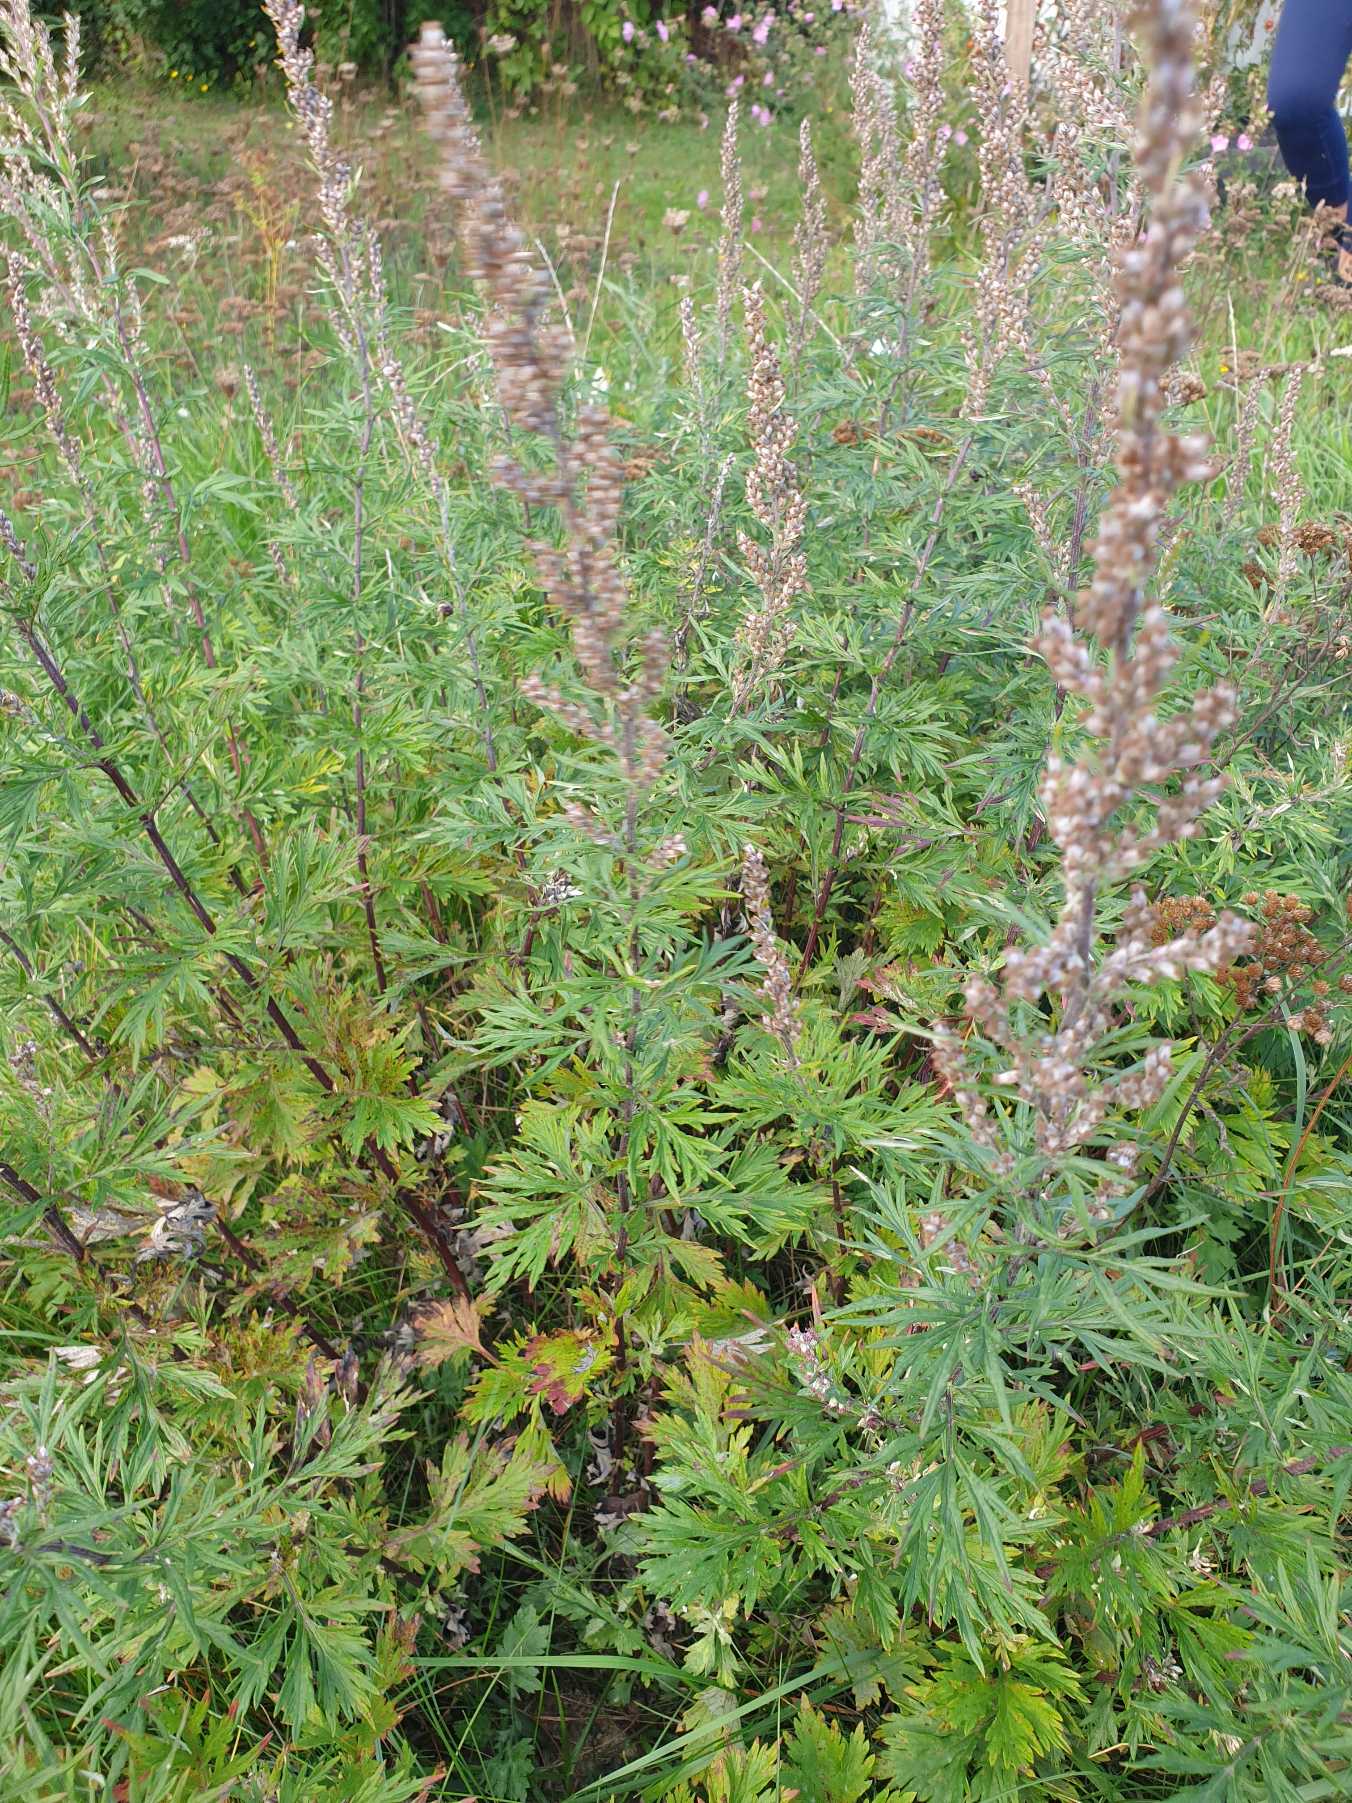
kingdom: Plantae
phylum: Tracheophyta
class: Magnoliopsida
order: Asterales
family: Asteraceae
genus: Artemisia
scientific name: Artemisia vulgaris
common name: Grå-bynke
